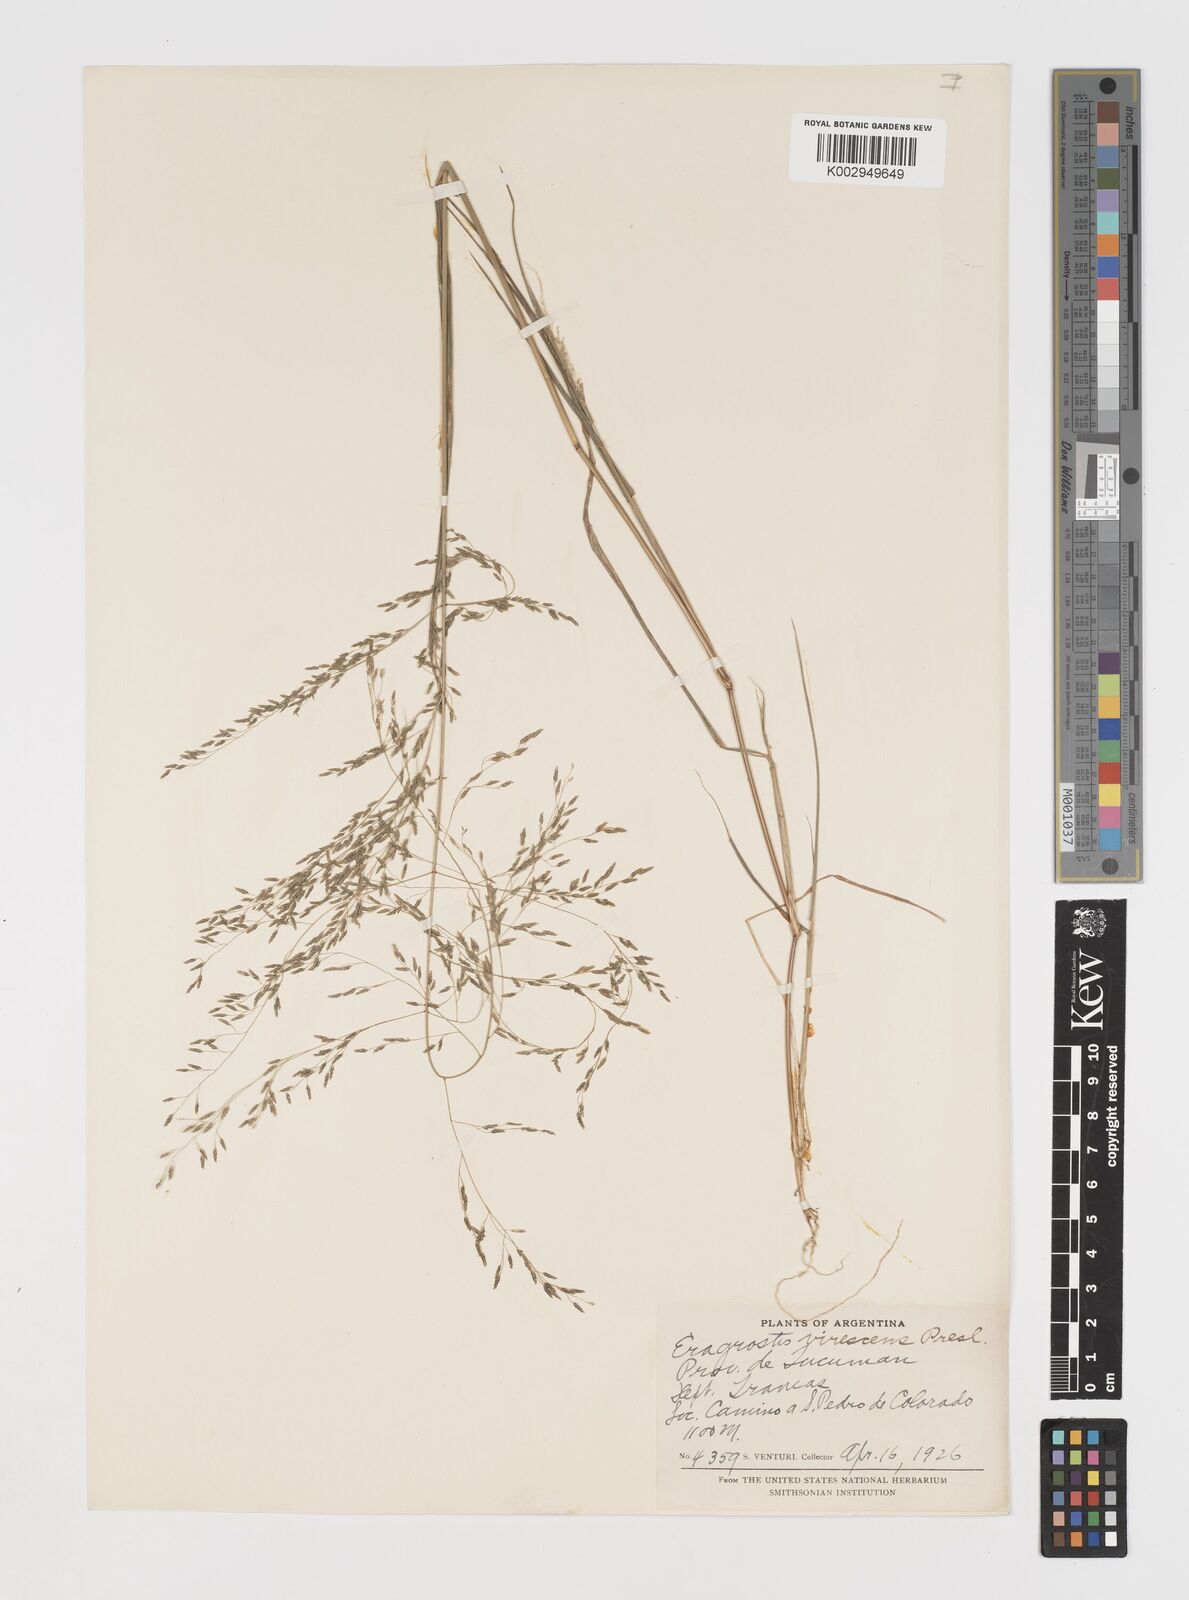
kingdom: Plantae
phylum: Tracheophyta
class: Liliopsida
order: Poales
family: Poaceae
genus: Eragrostis
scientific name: Eragrostis mexicana
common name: Mexican love grass
